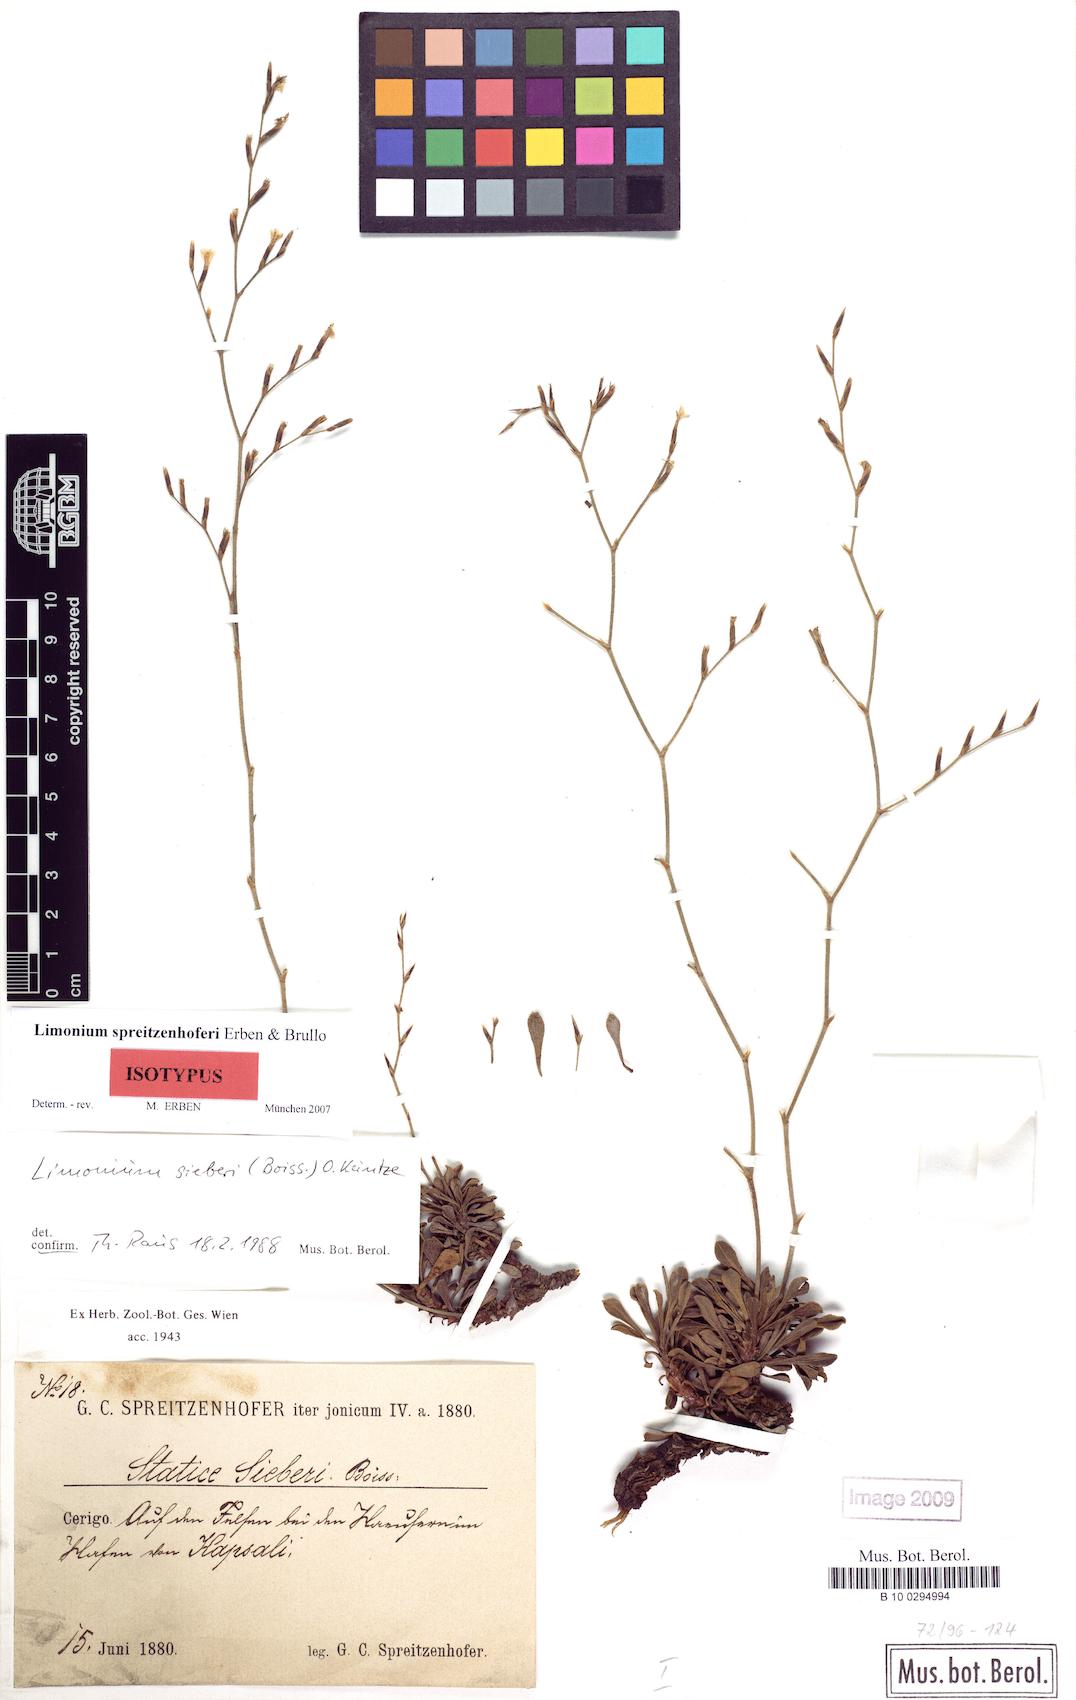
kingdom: Plantae
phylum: Tracheophyta
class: Magnoliopsida
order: Caryophyllales
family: Plumbaginaceae
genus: Limonium
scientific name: Limonium spreitzenhoferi
